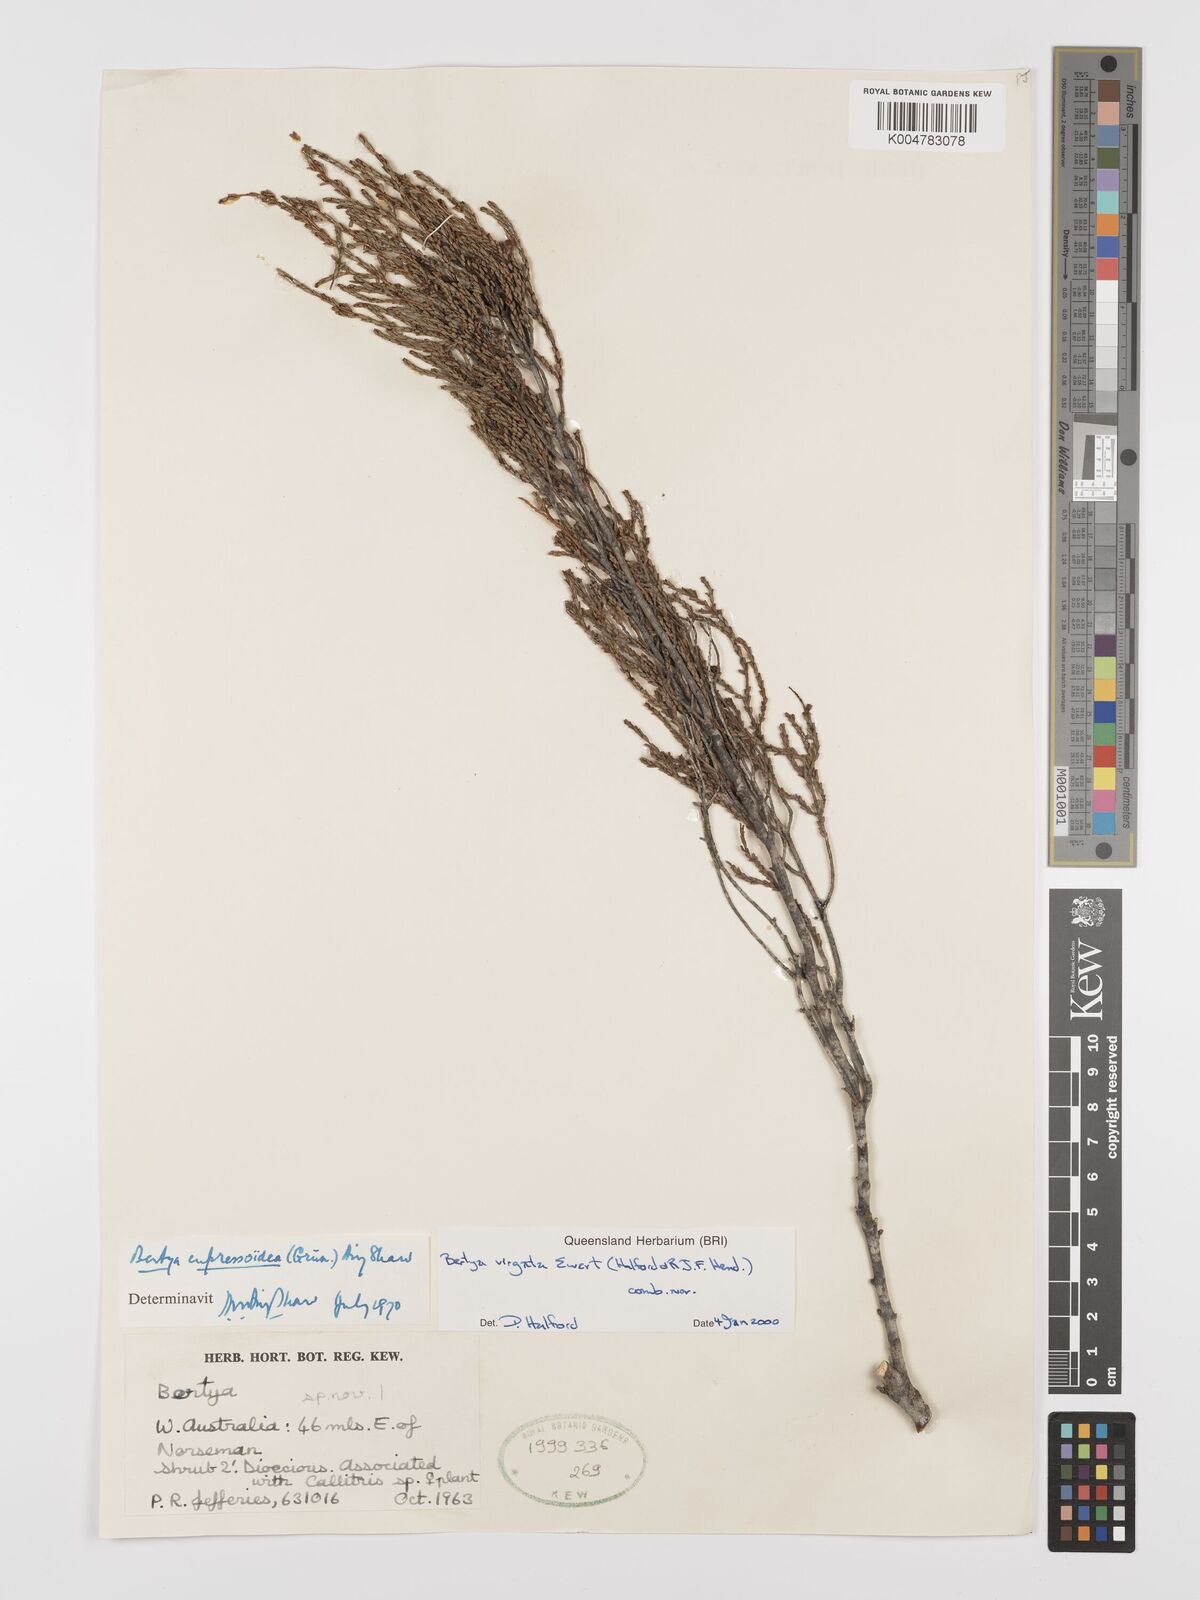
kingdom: Plantae
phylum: Tracheophyta
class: Magnoliopsida
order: Malpighiales
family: Euphorbiaceae
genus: Bertya
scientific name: Bertya virgata
